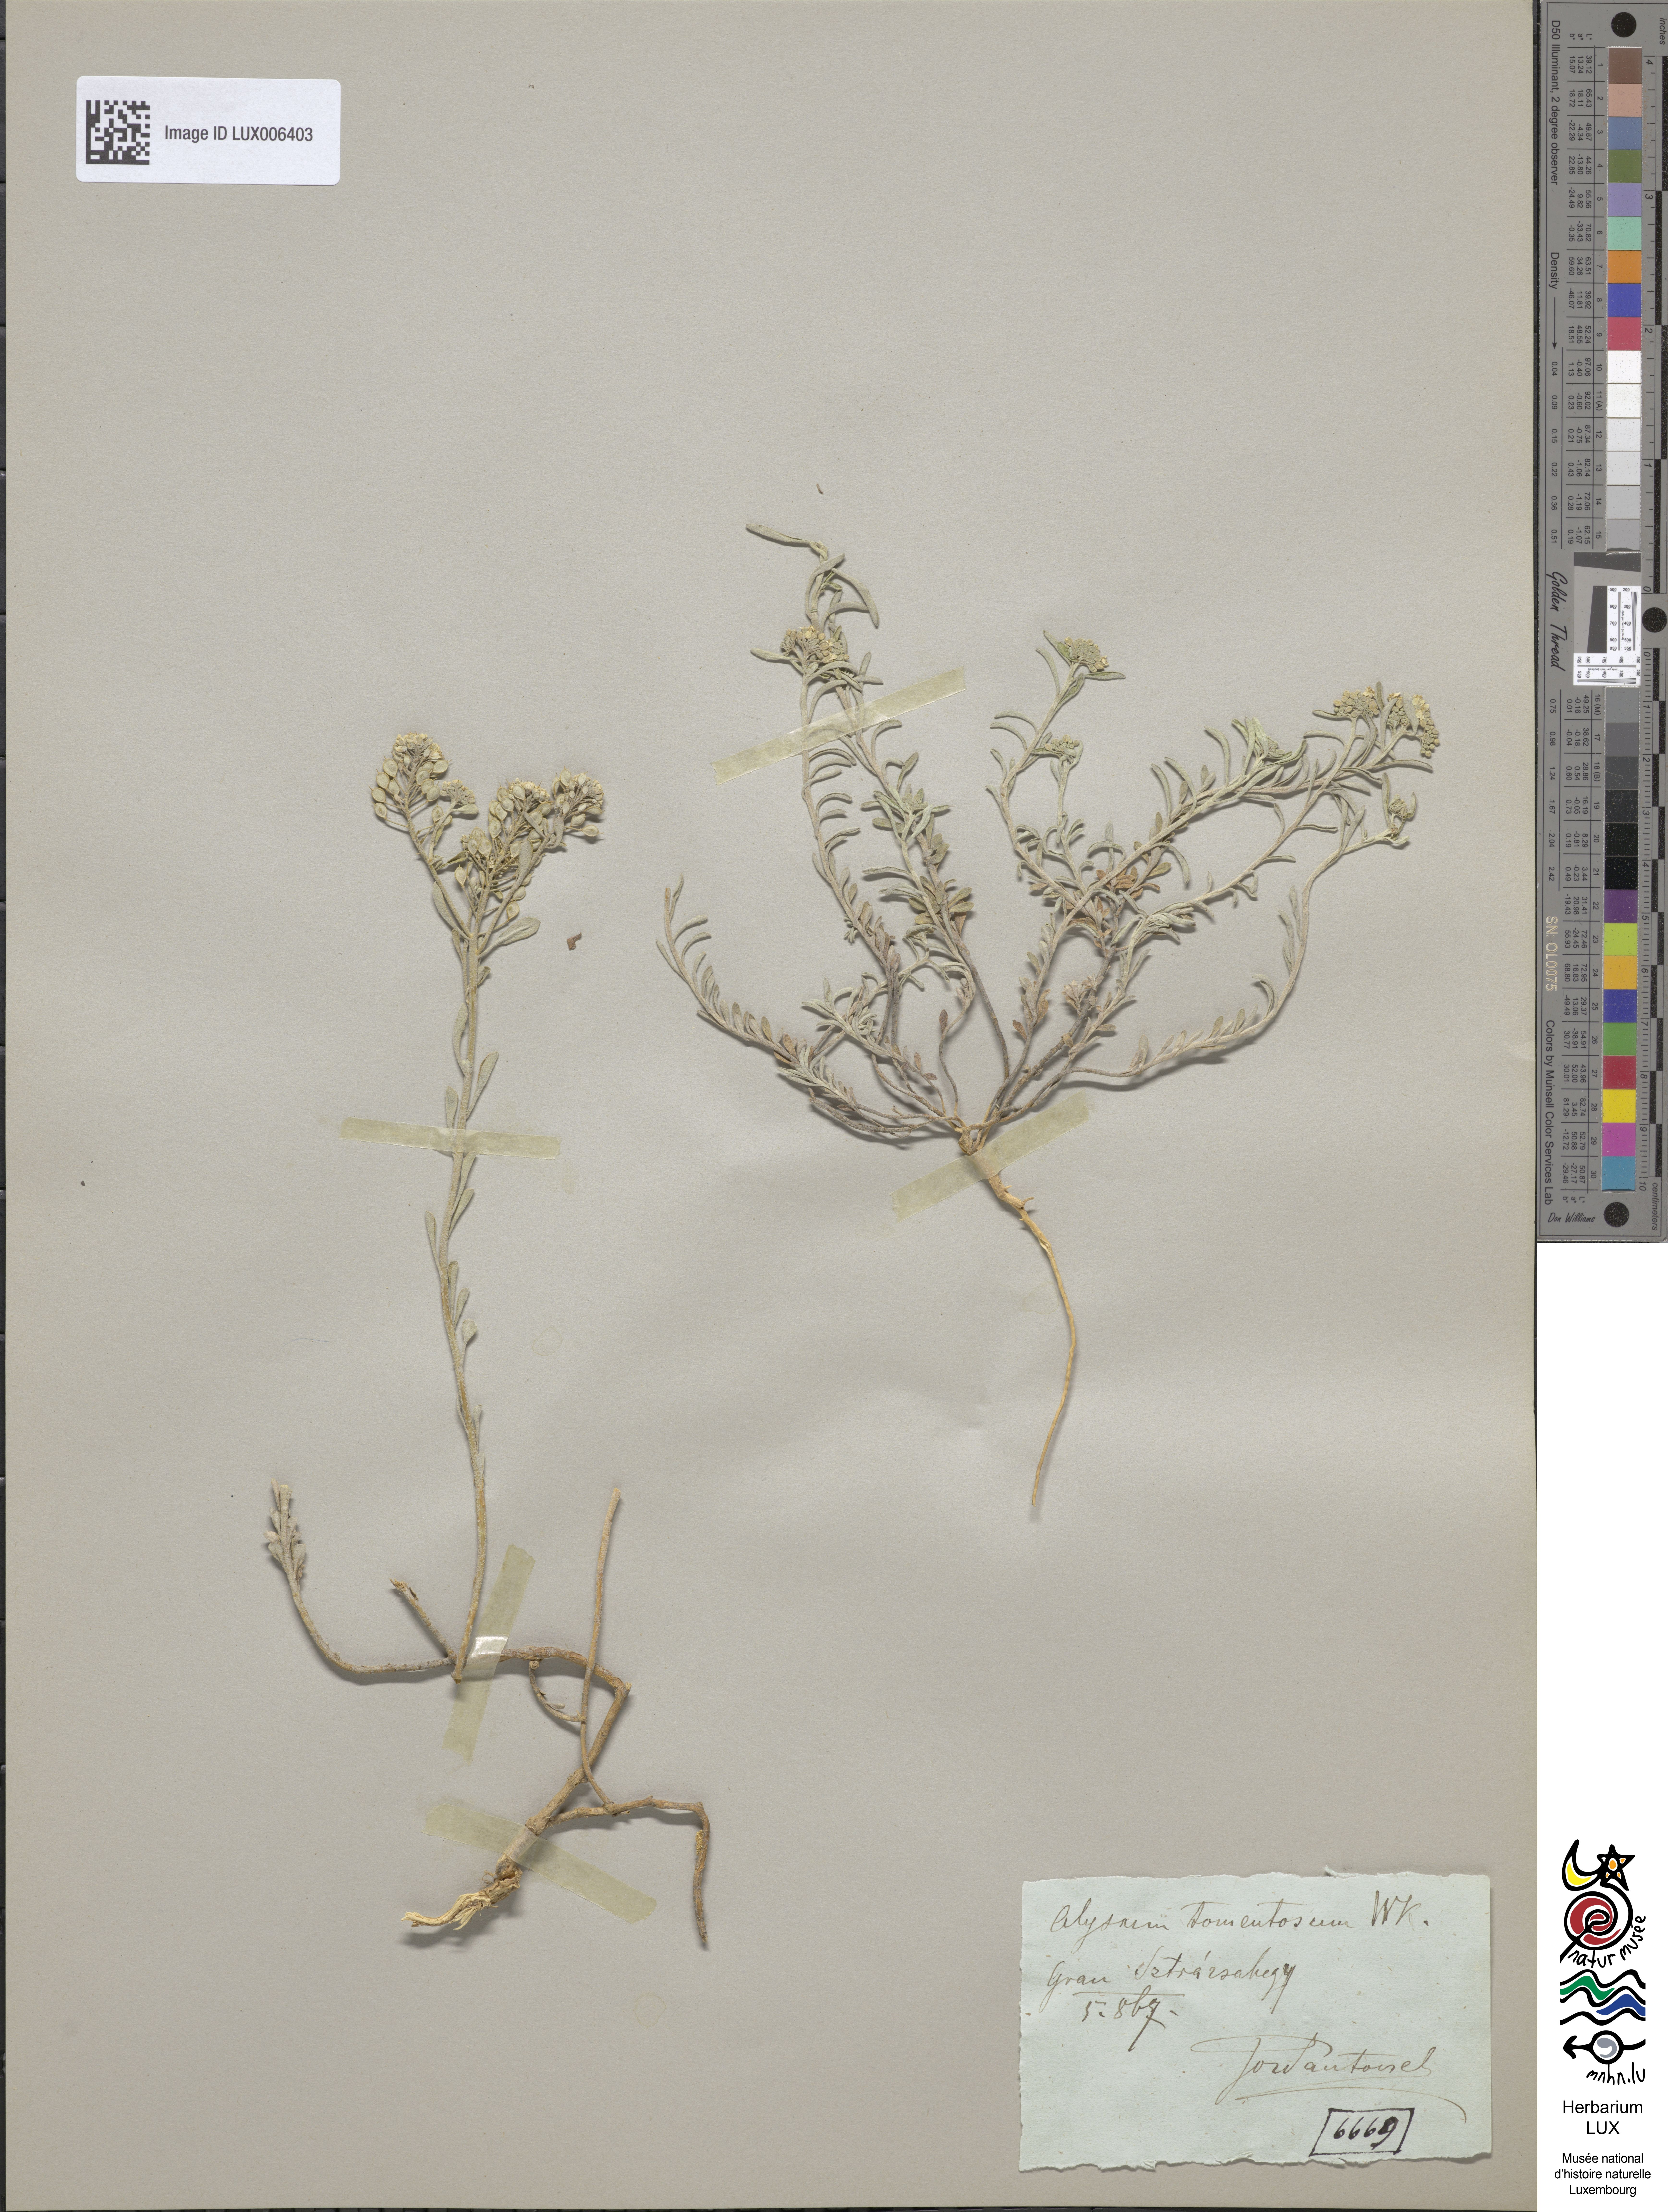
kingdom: Plantae
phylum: Tracheophyta
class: Magnoliopsida
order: Brassicales
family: Brassicaceae
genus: Alyssum
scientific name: Alyssum
